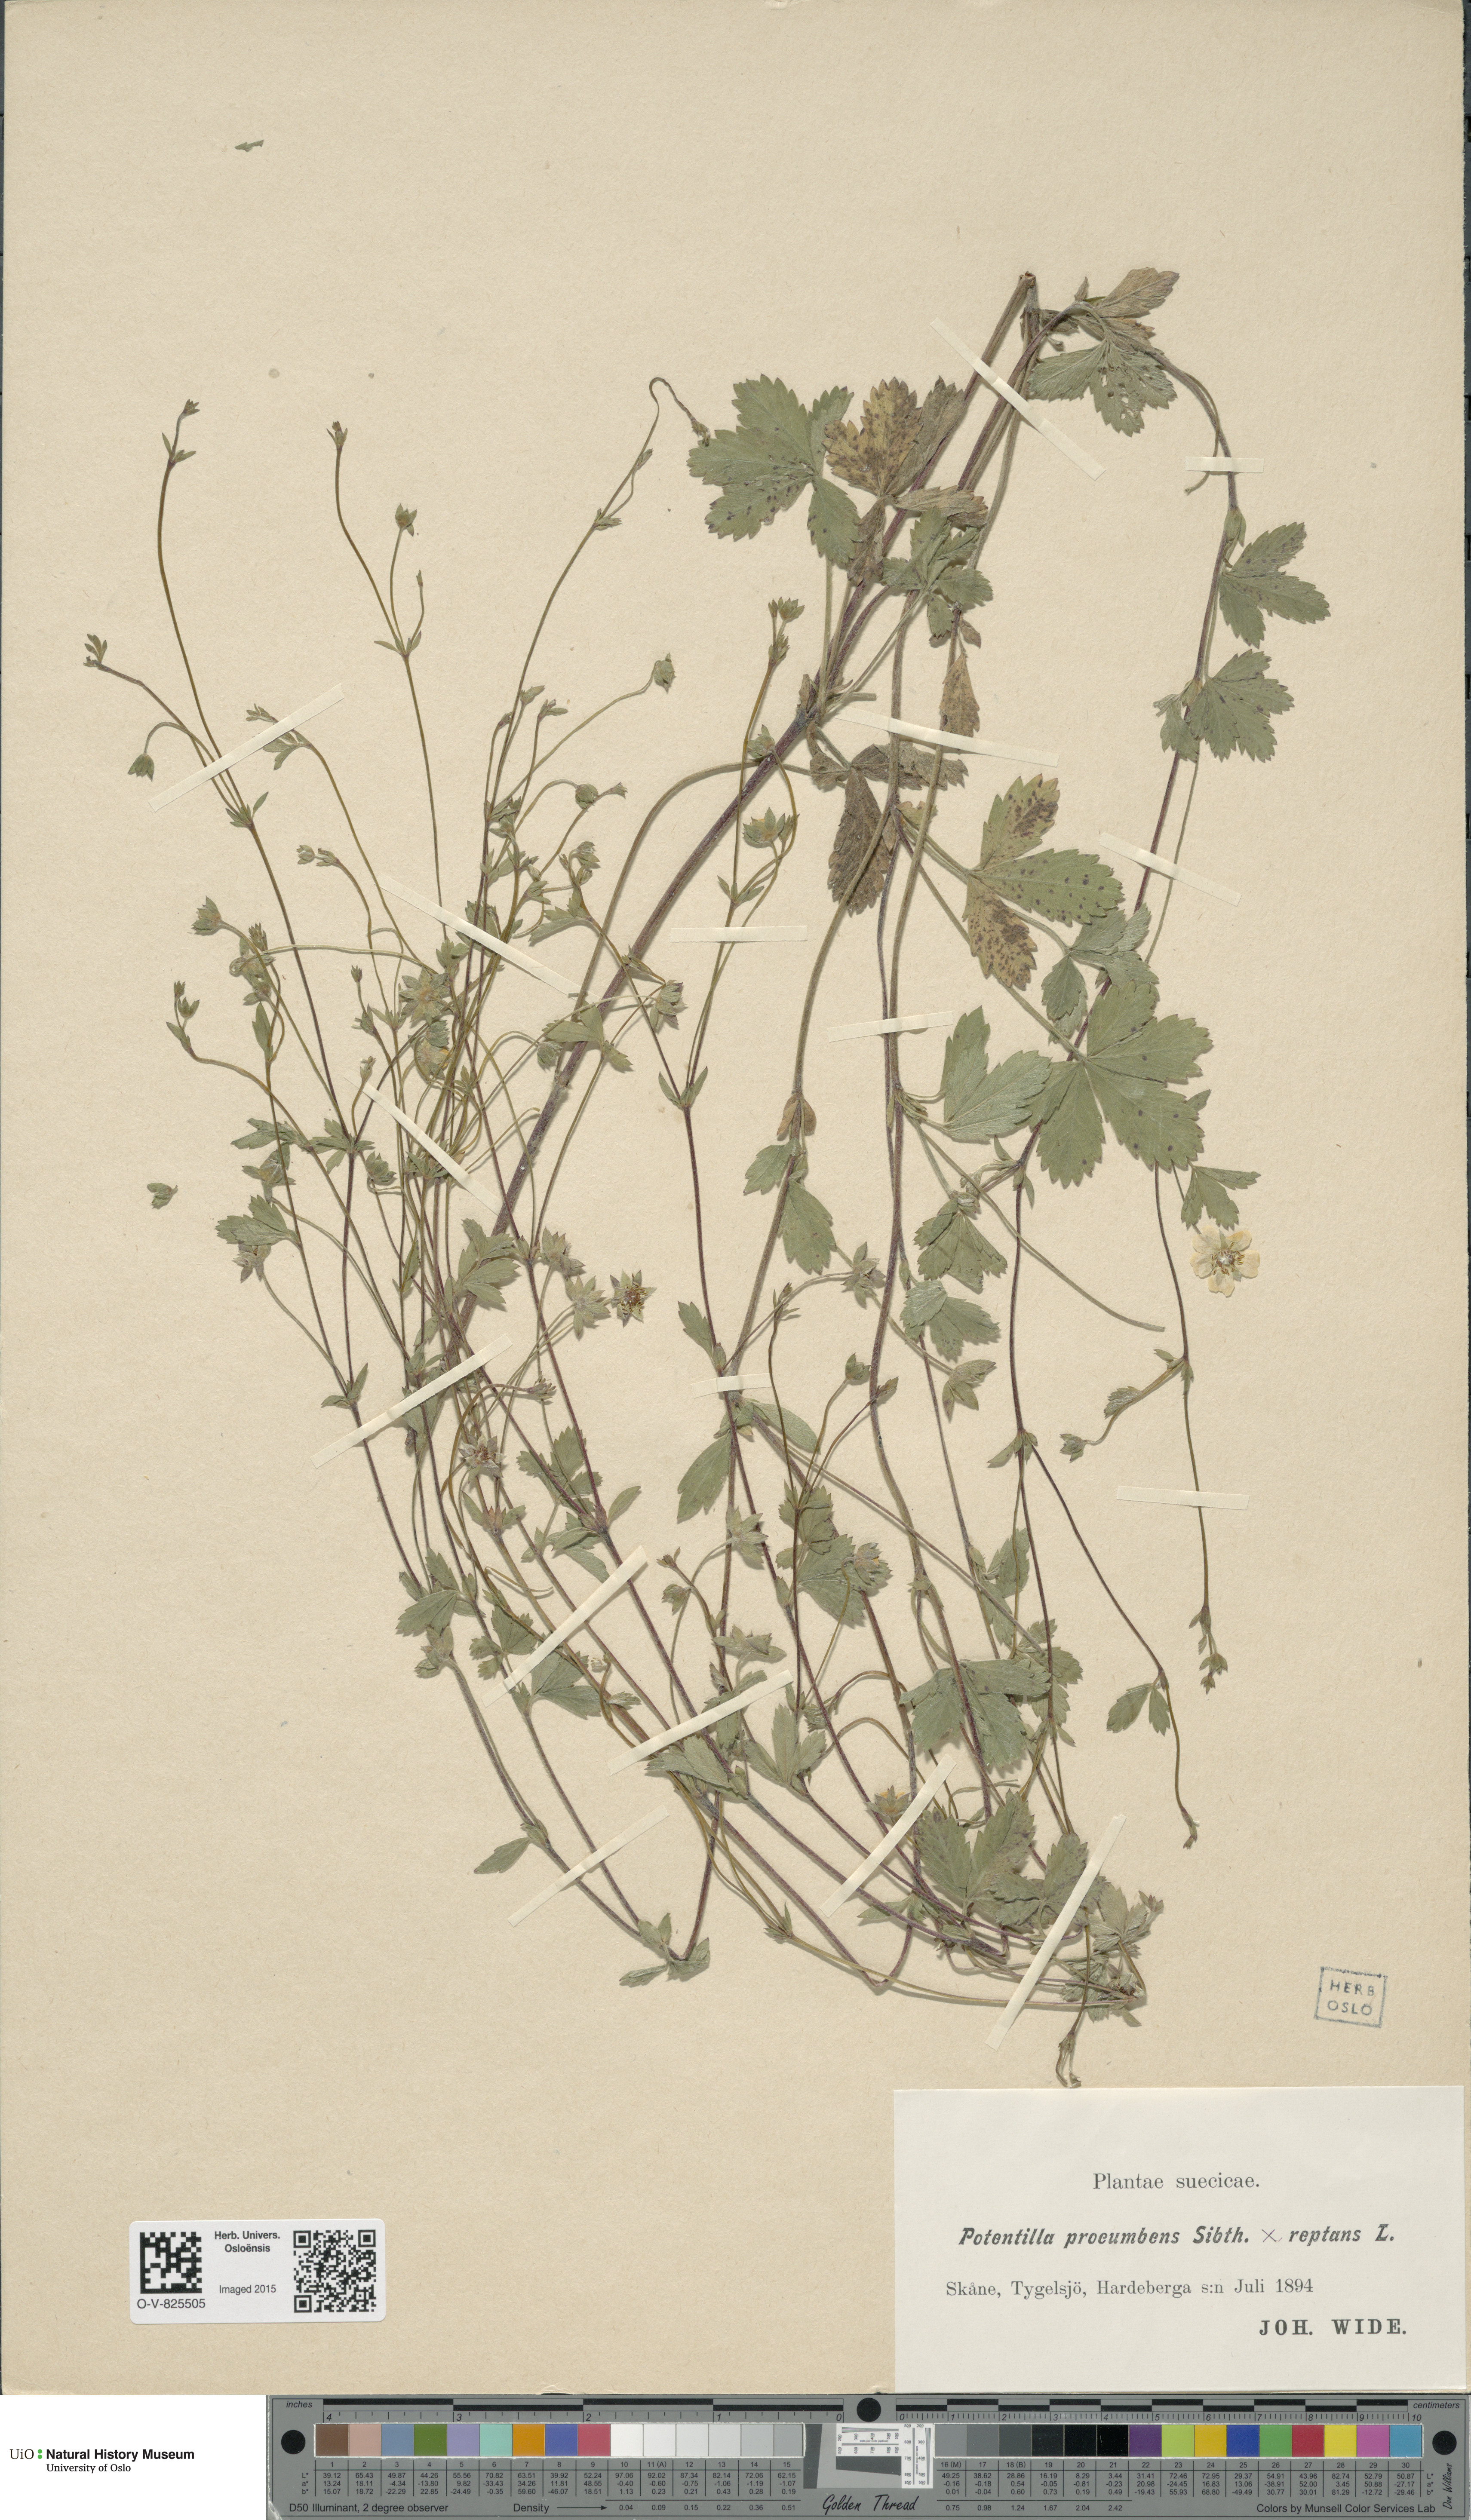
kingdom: Plantae
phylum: Tracheophyta
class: Magnoliopsida
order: Rosales
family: Rosaceae
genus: Potentilla
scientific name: Potentilla
